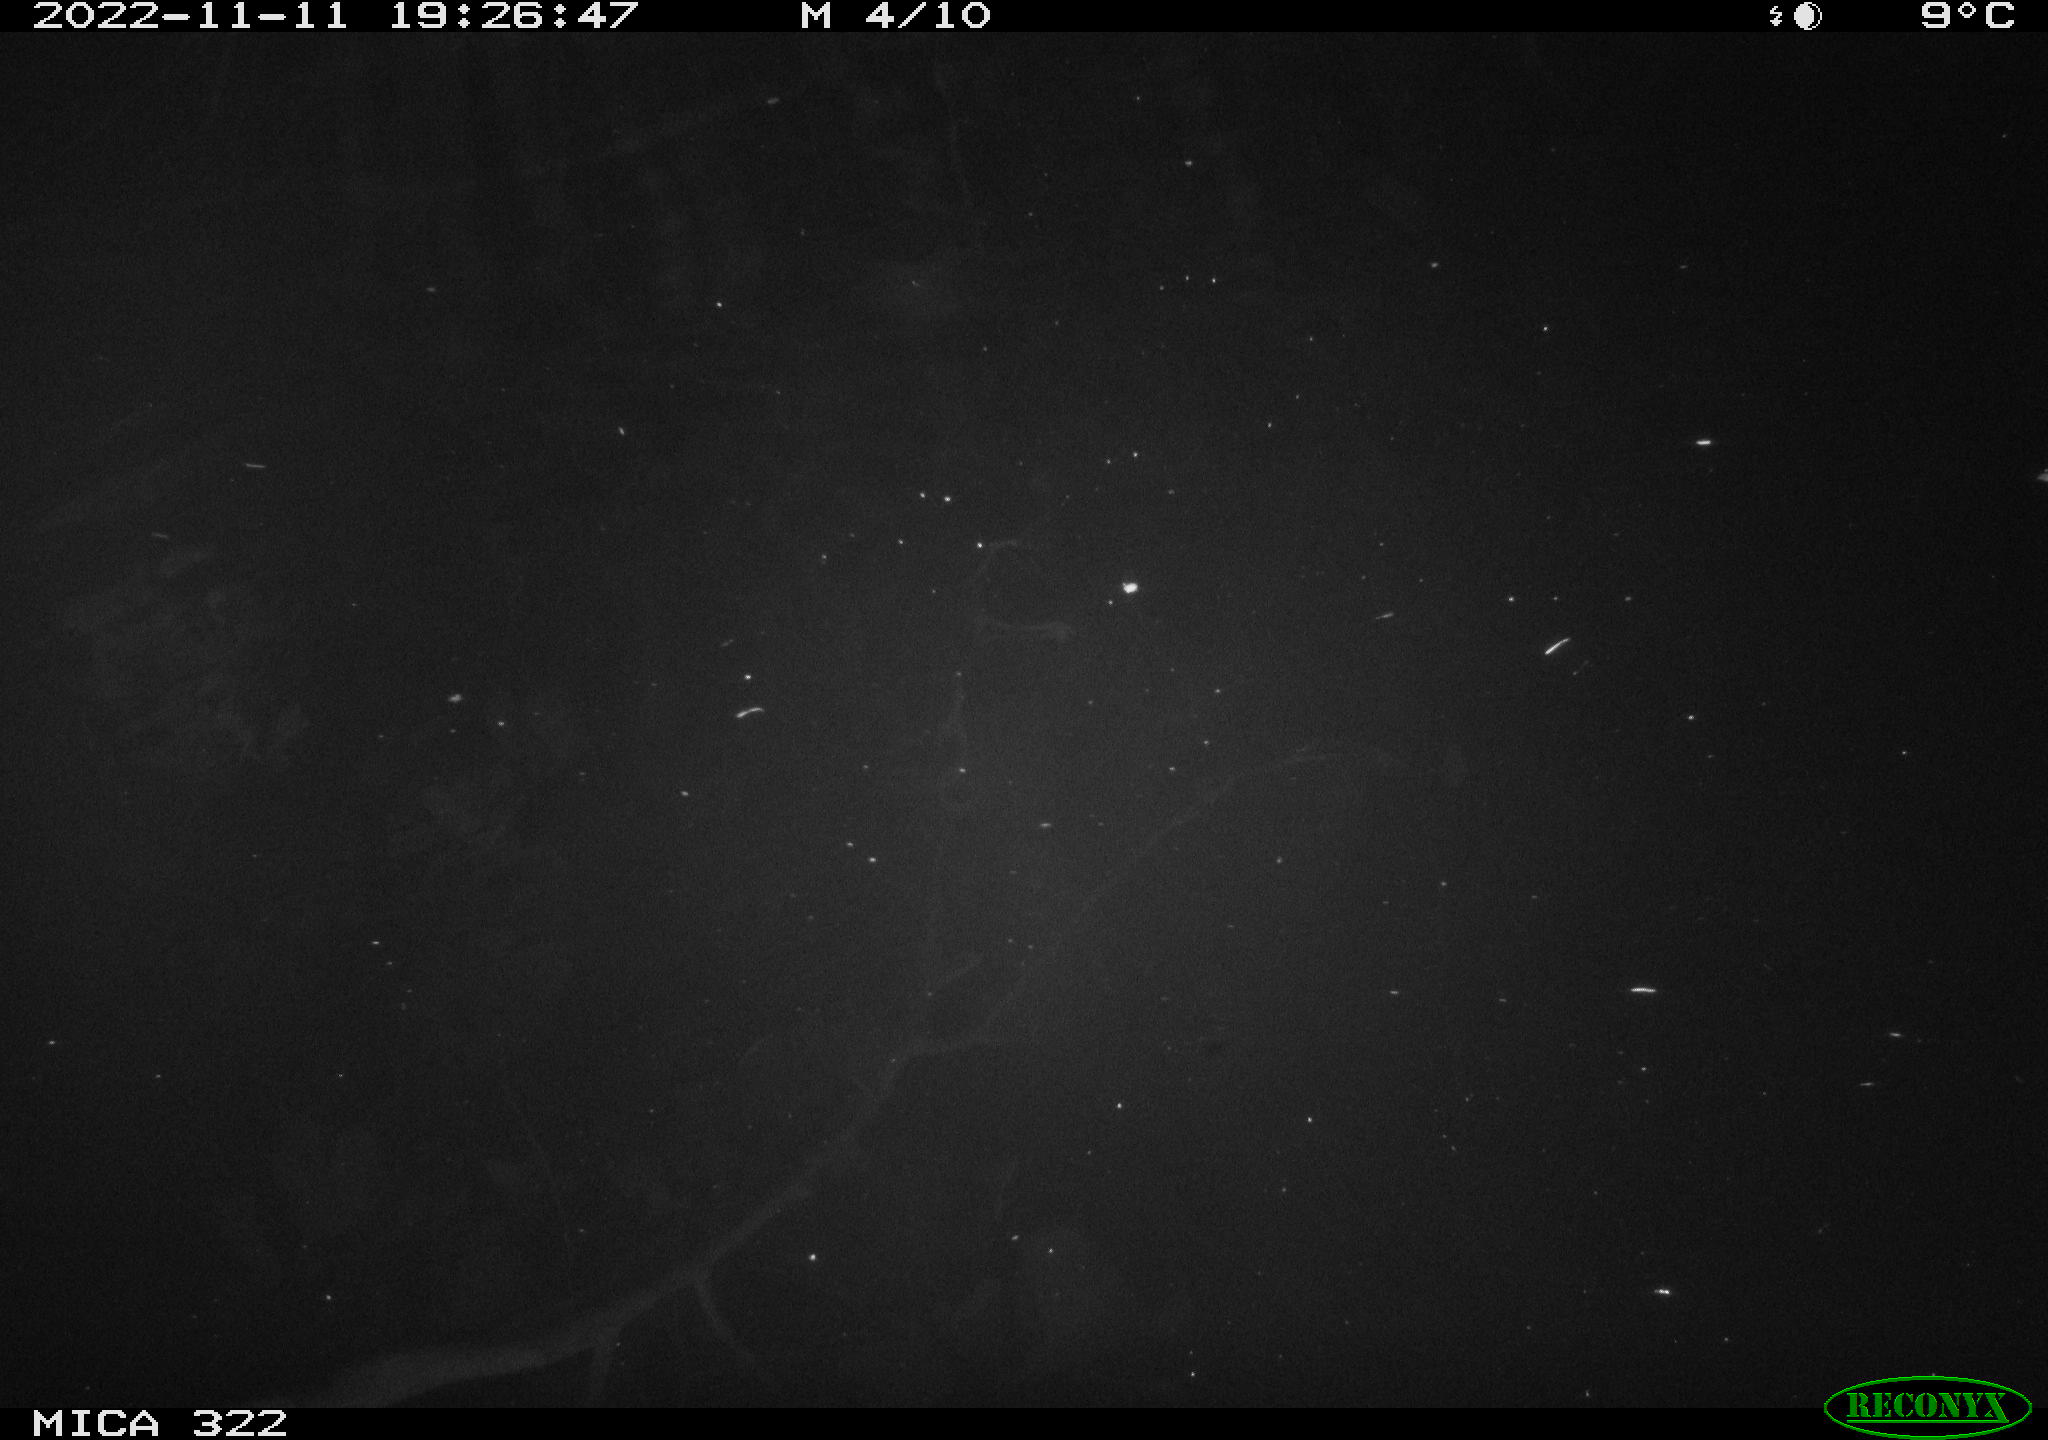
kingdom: Animalia
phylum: Chordata
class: Mammalia
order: Rodentia
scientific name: Rodentia
